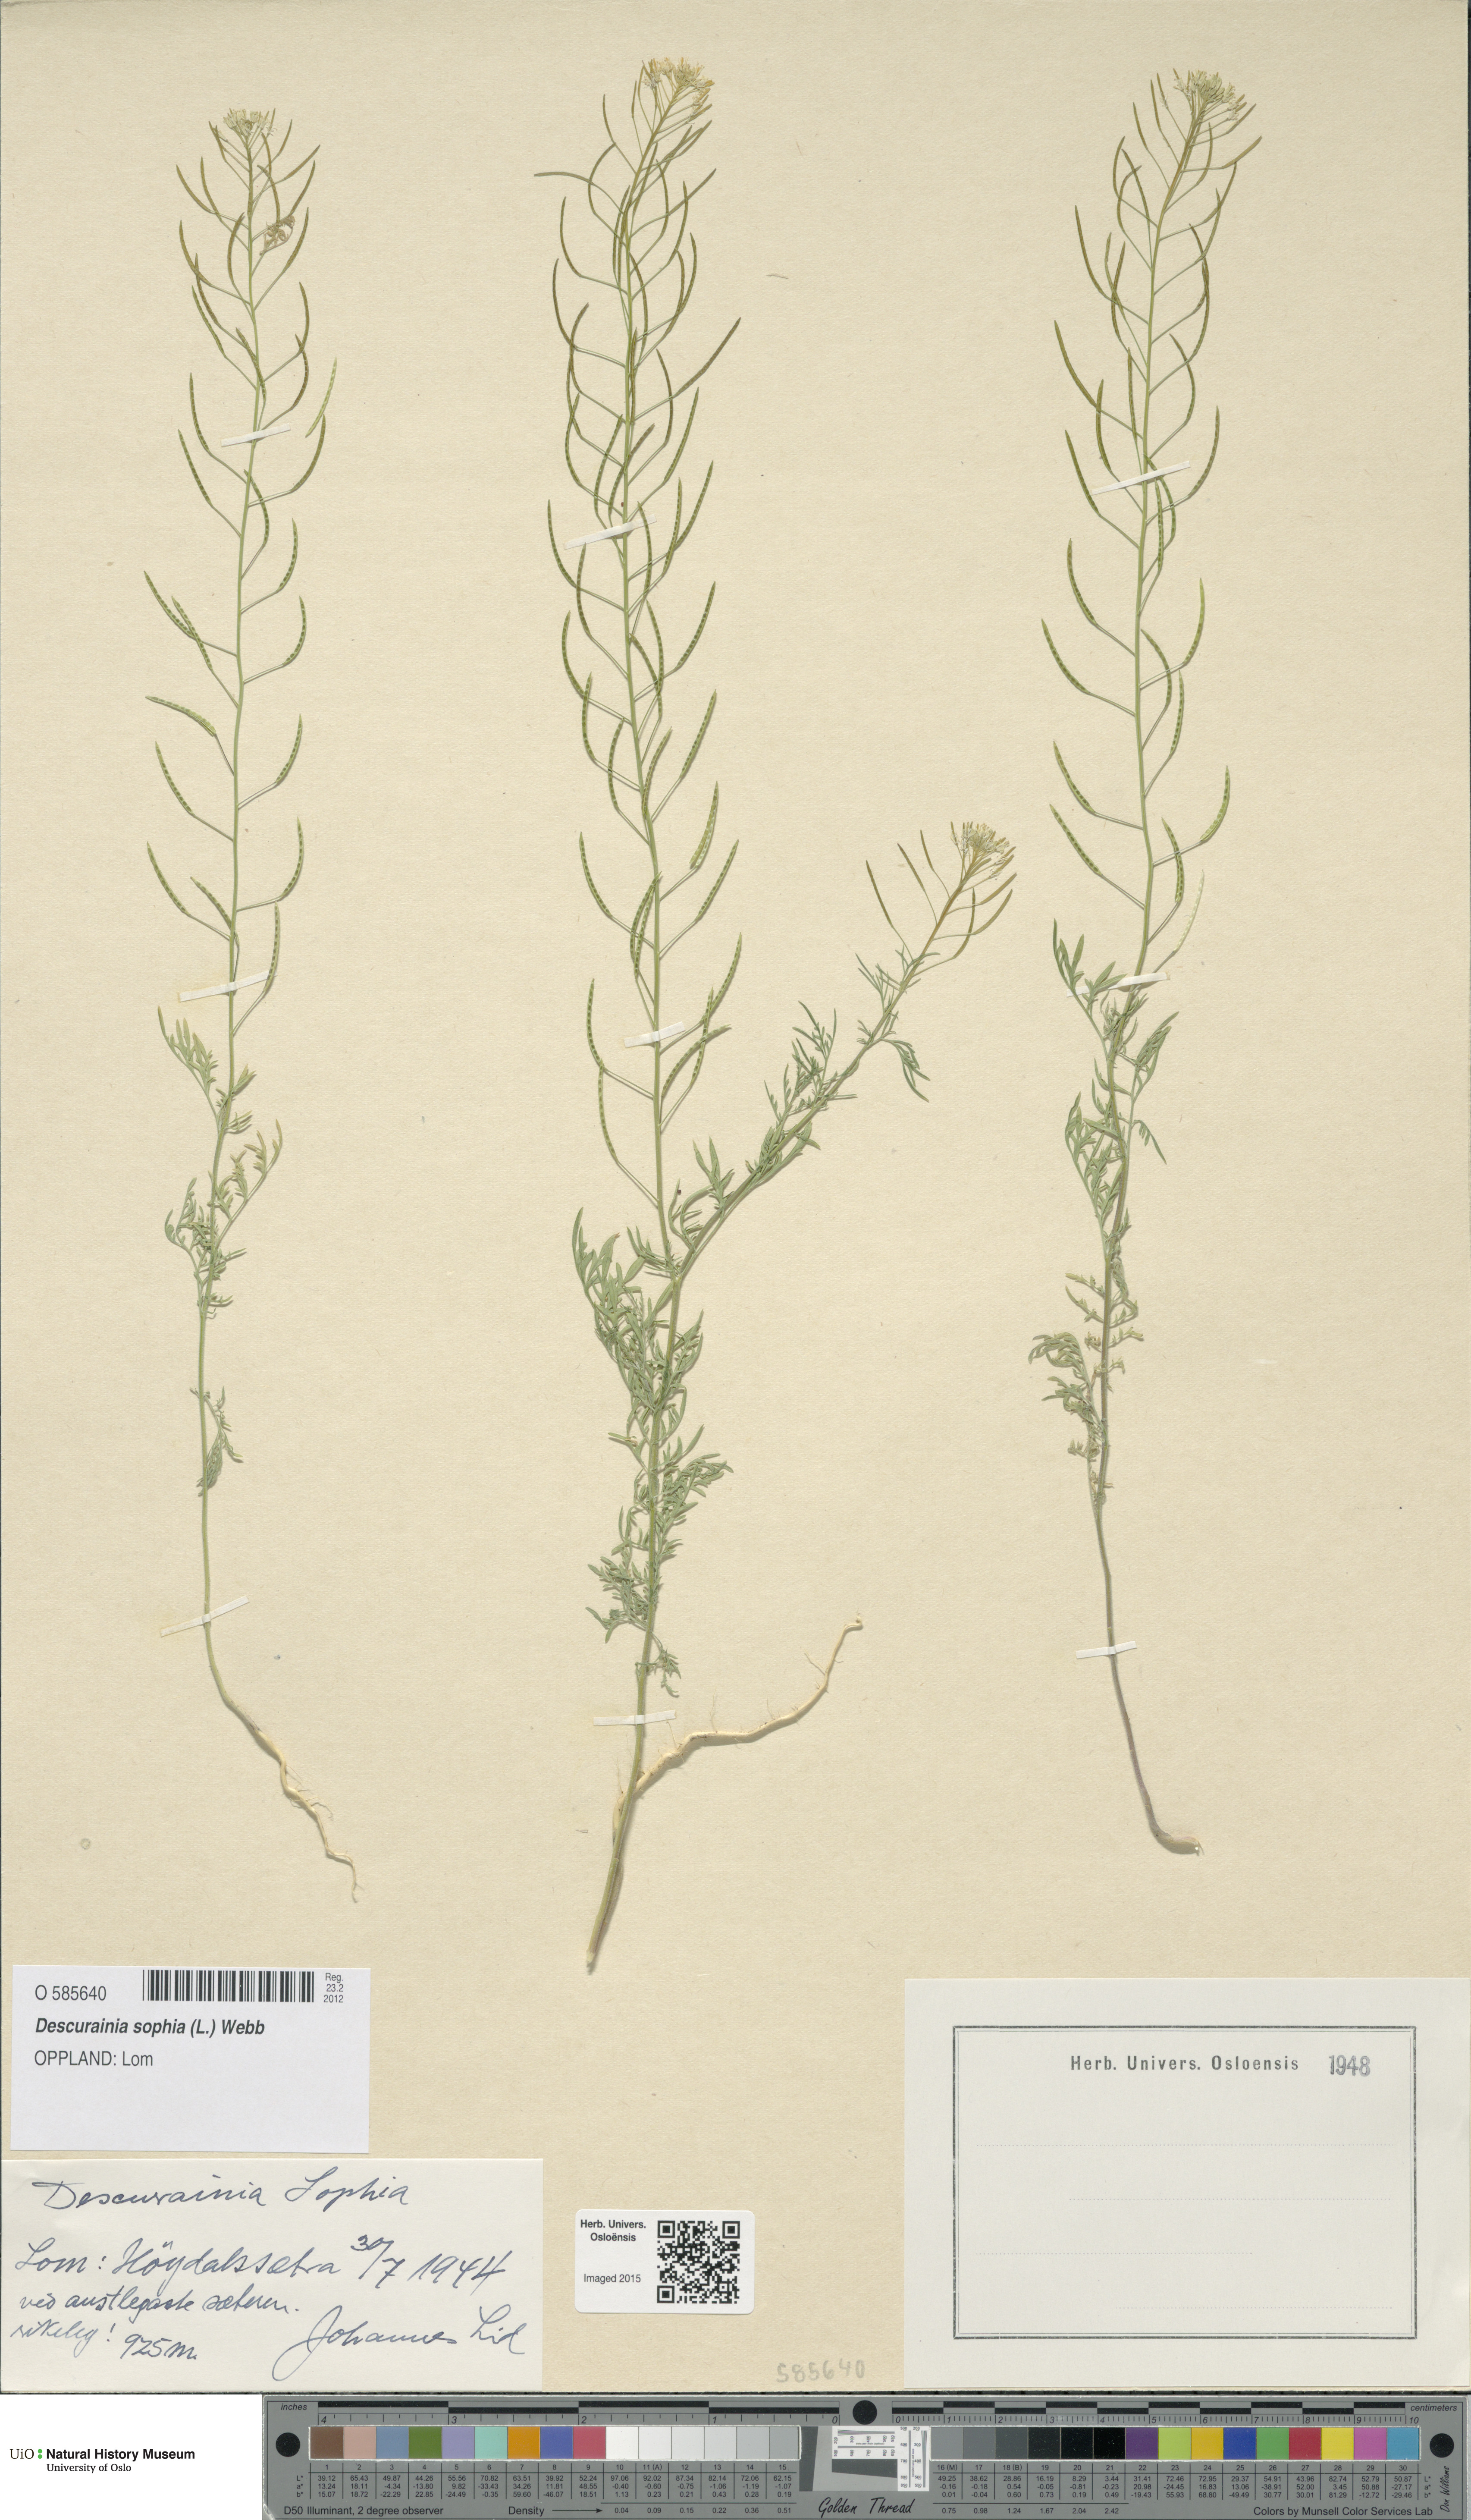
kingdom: Plantae
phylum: Tracheophyta
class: Magnoliopsida
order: Brassicales
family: Brassicaceae
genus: Descurainia
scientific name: Descurainia sophia
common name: Flixweed
